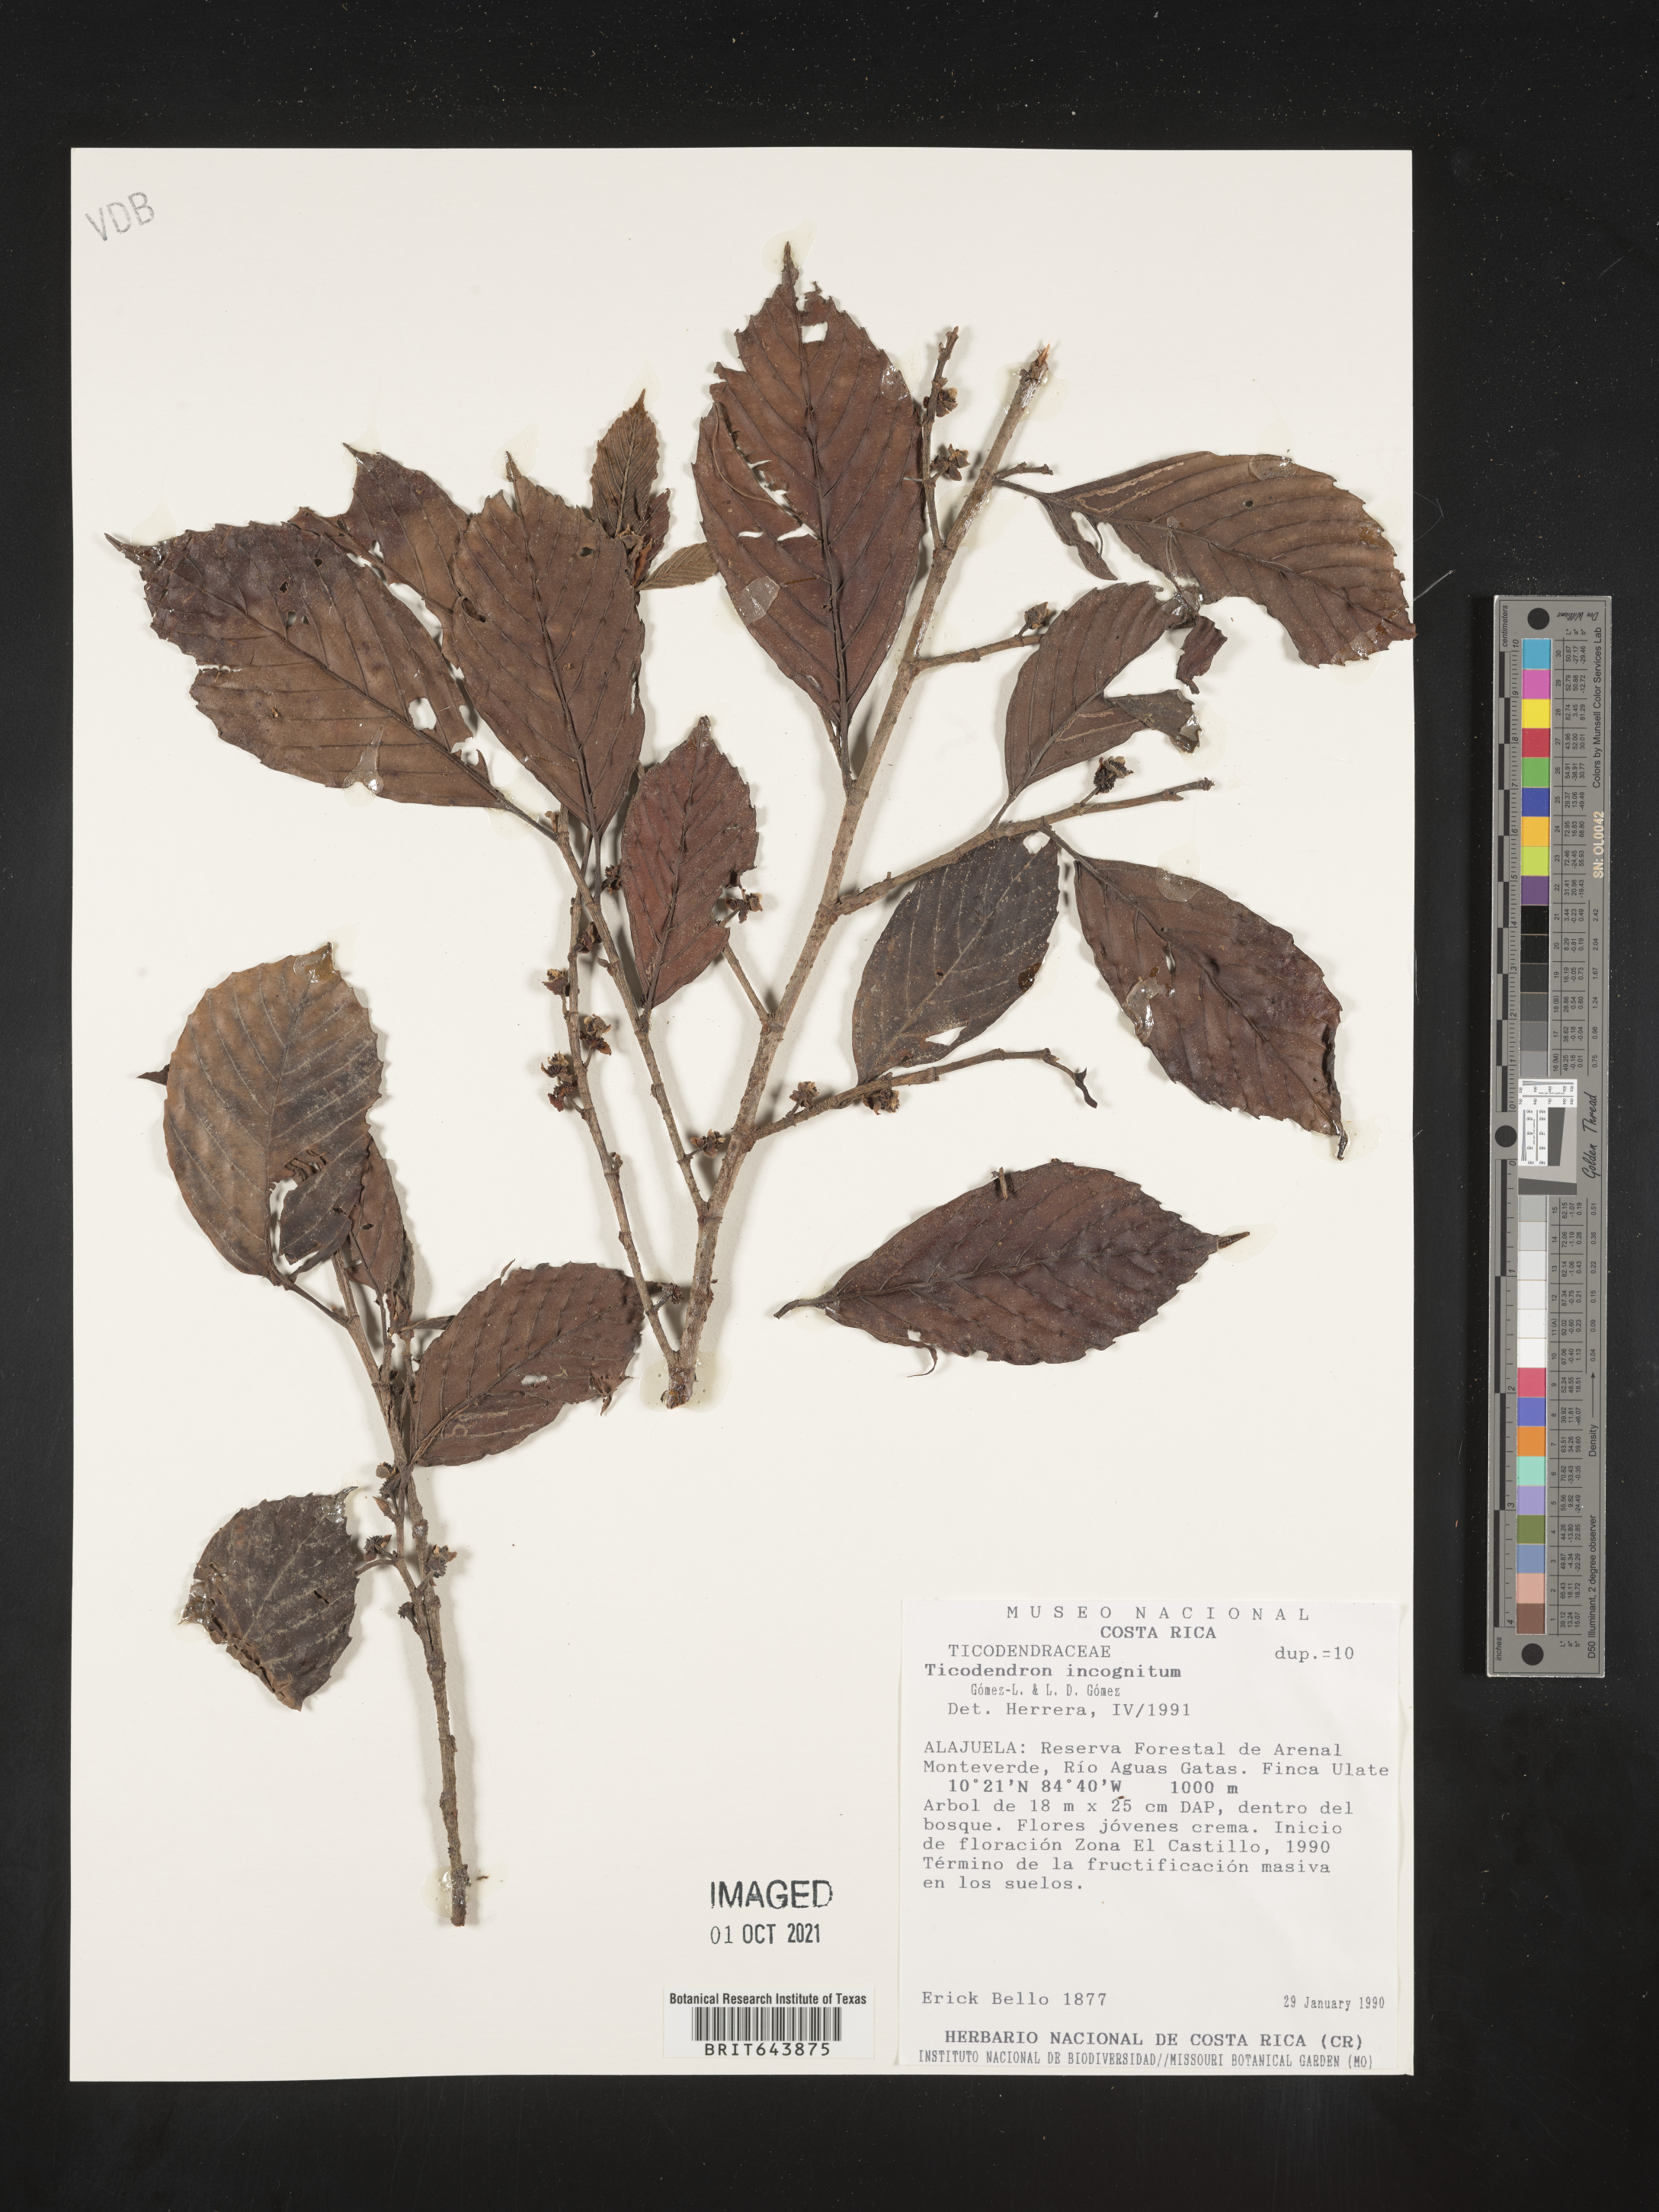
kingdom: Plantae
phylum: Tracheophyta
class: Magnoliopsida
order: Fagales
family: Ticodendraceae
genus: Ticodendron
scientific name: Ticodendron
